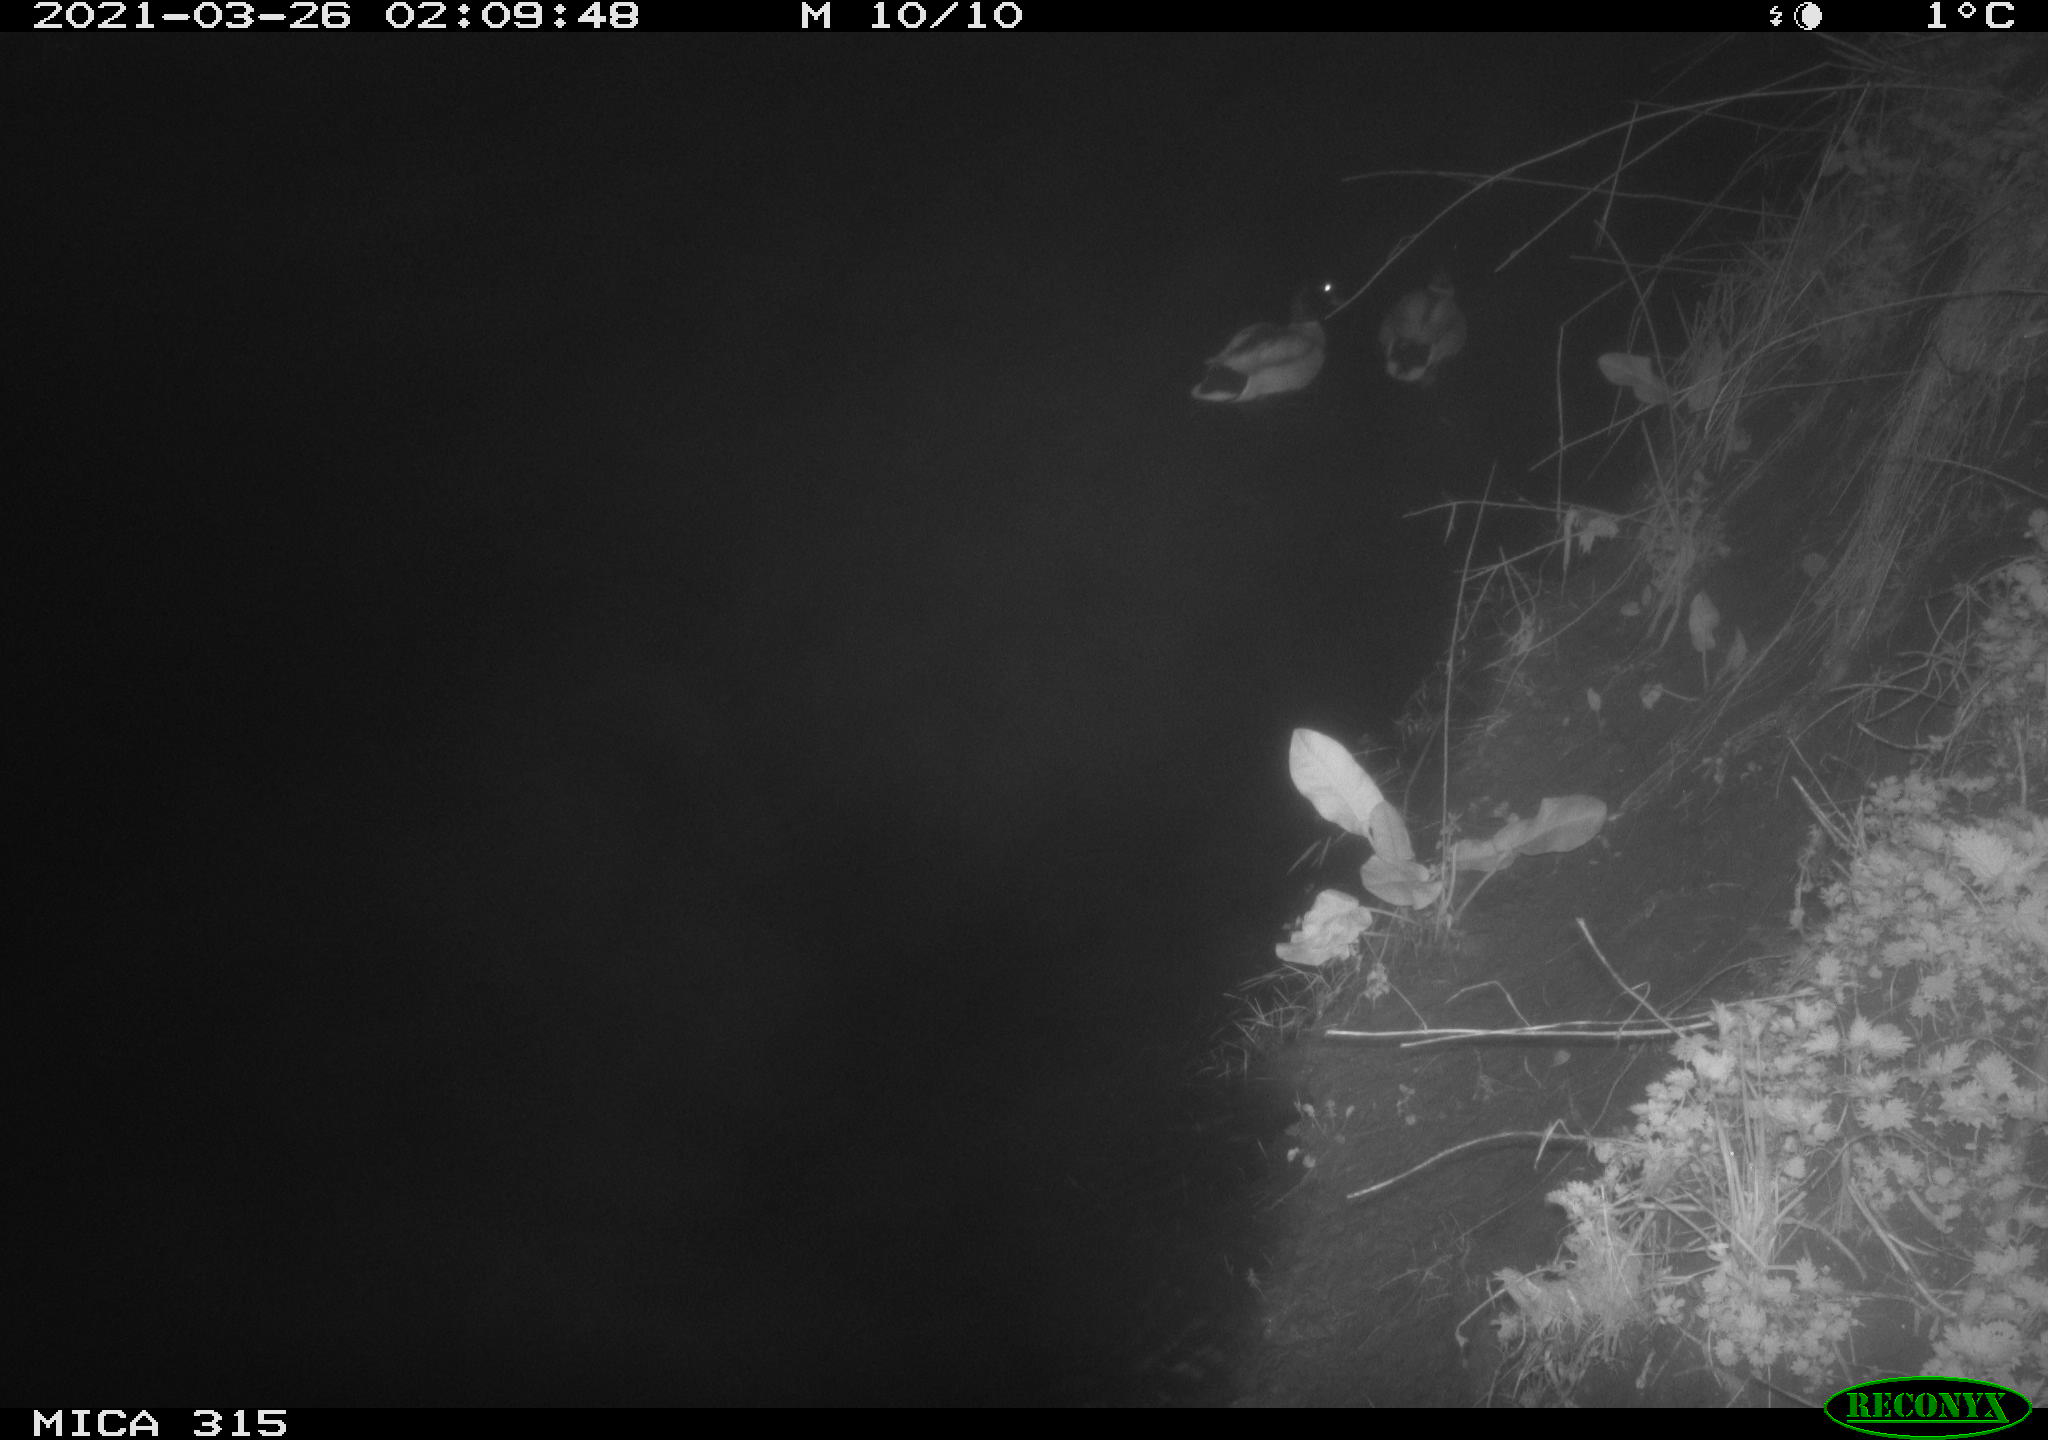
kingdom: Animalia
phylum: Chordata
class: Aves
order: Anseriformes
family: Anatidae
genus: Anas
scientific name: Anas platyrhynchos
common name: Mallard
